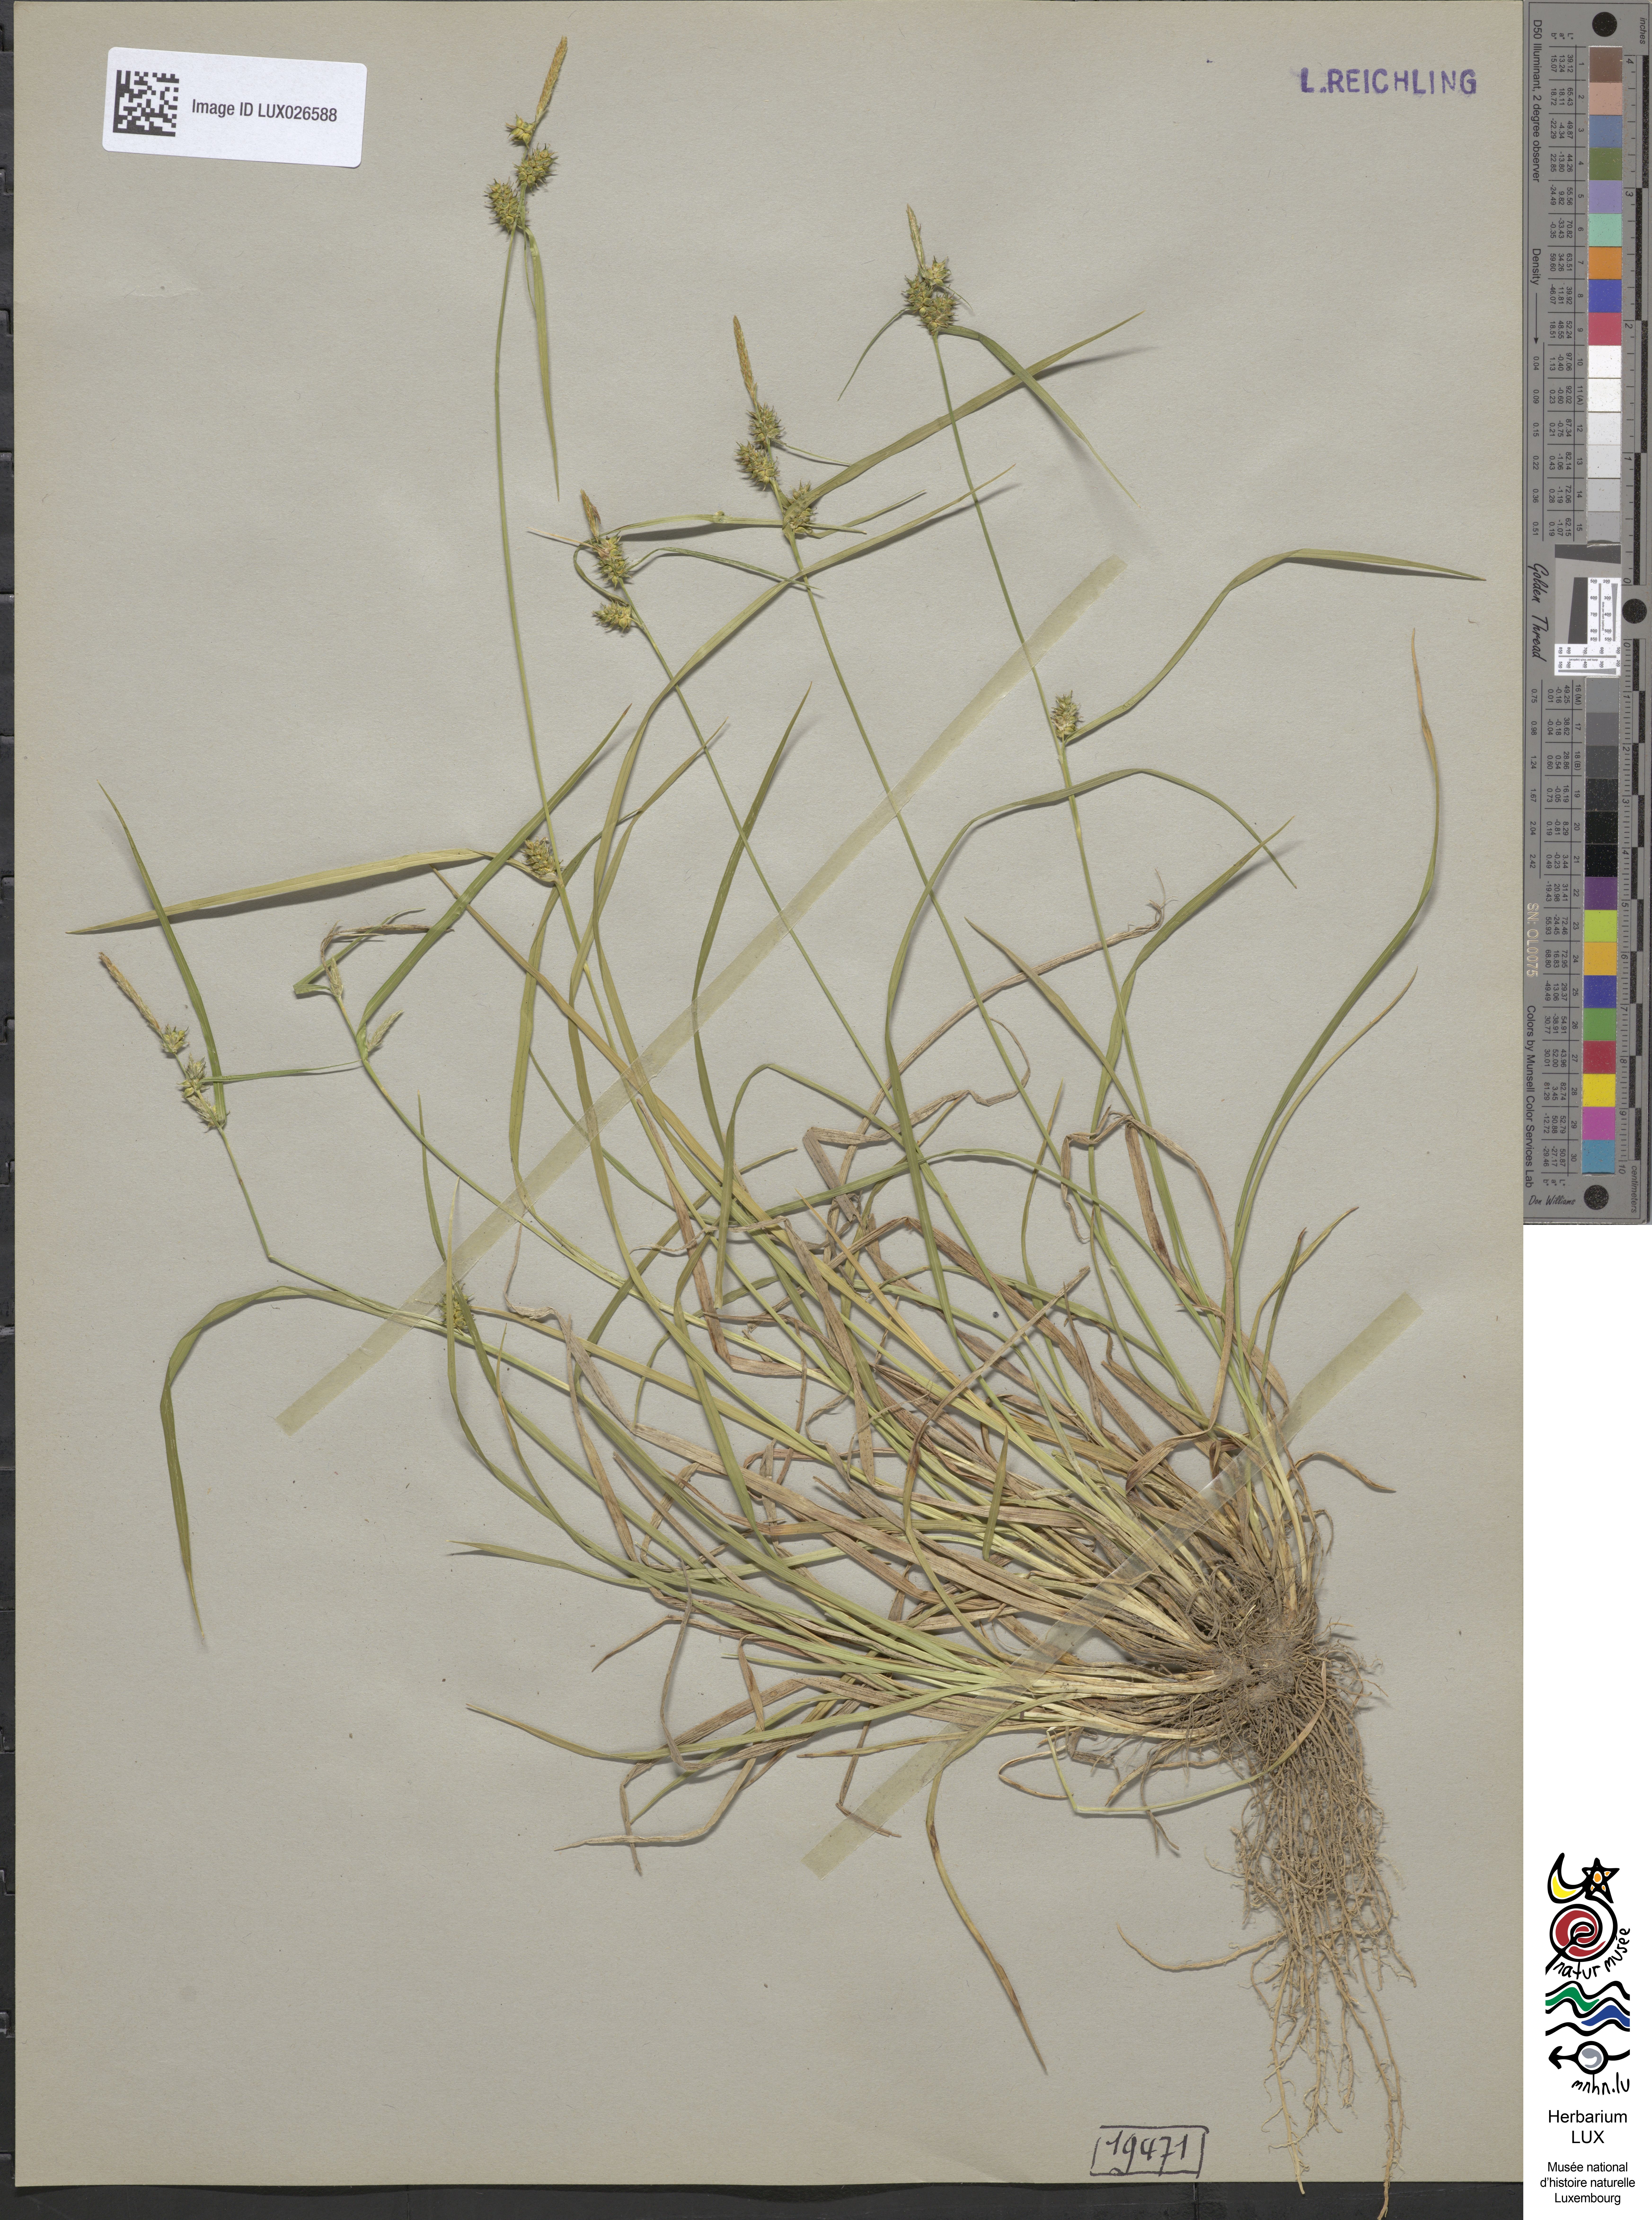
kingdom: Plantae
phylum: Tracheophyta
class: Liliopsida
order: Poales
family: Cyperaceae
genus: Carex
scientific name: Carex demissa
